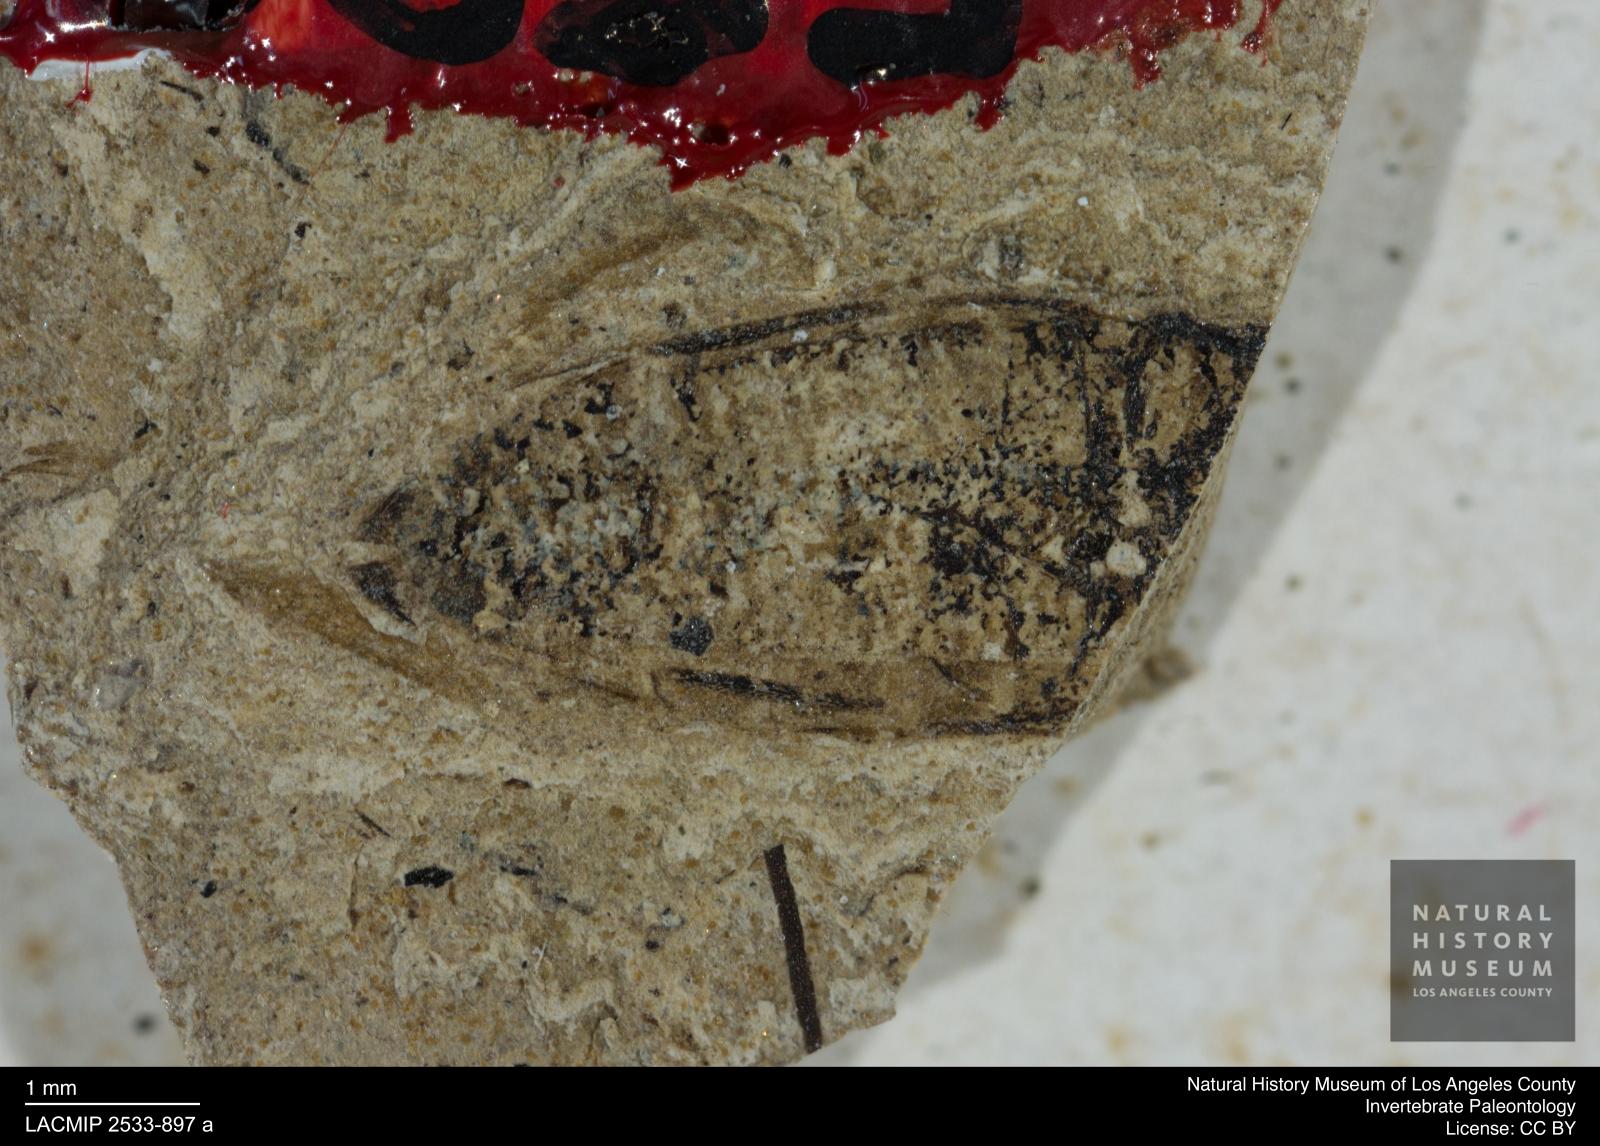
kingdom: Animalia
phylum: Arthropoda
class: Insecta
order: Hemiptera
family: Corixidae
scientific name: Corixidae
